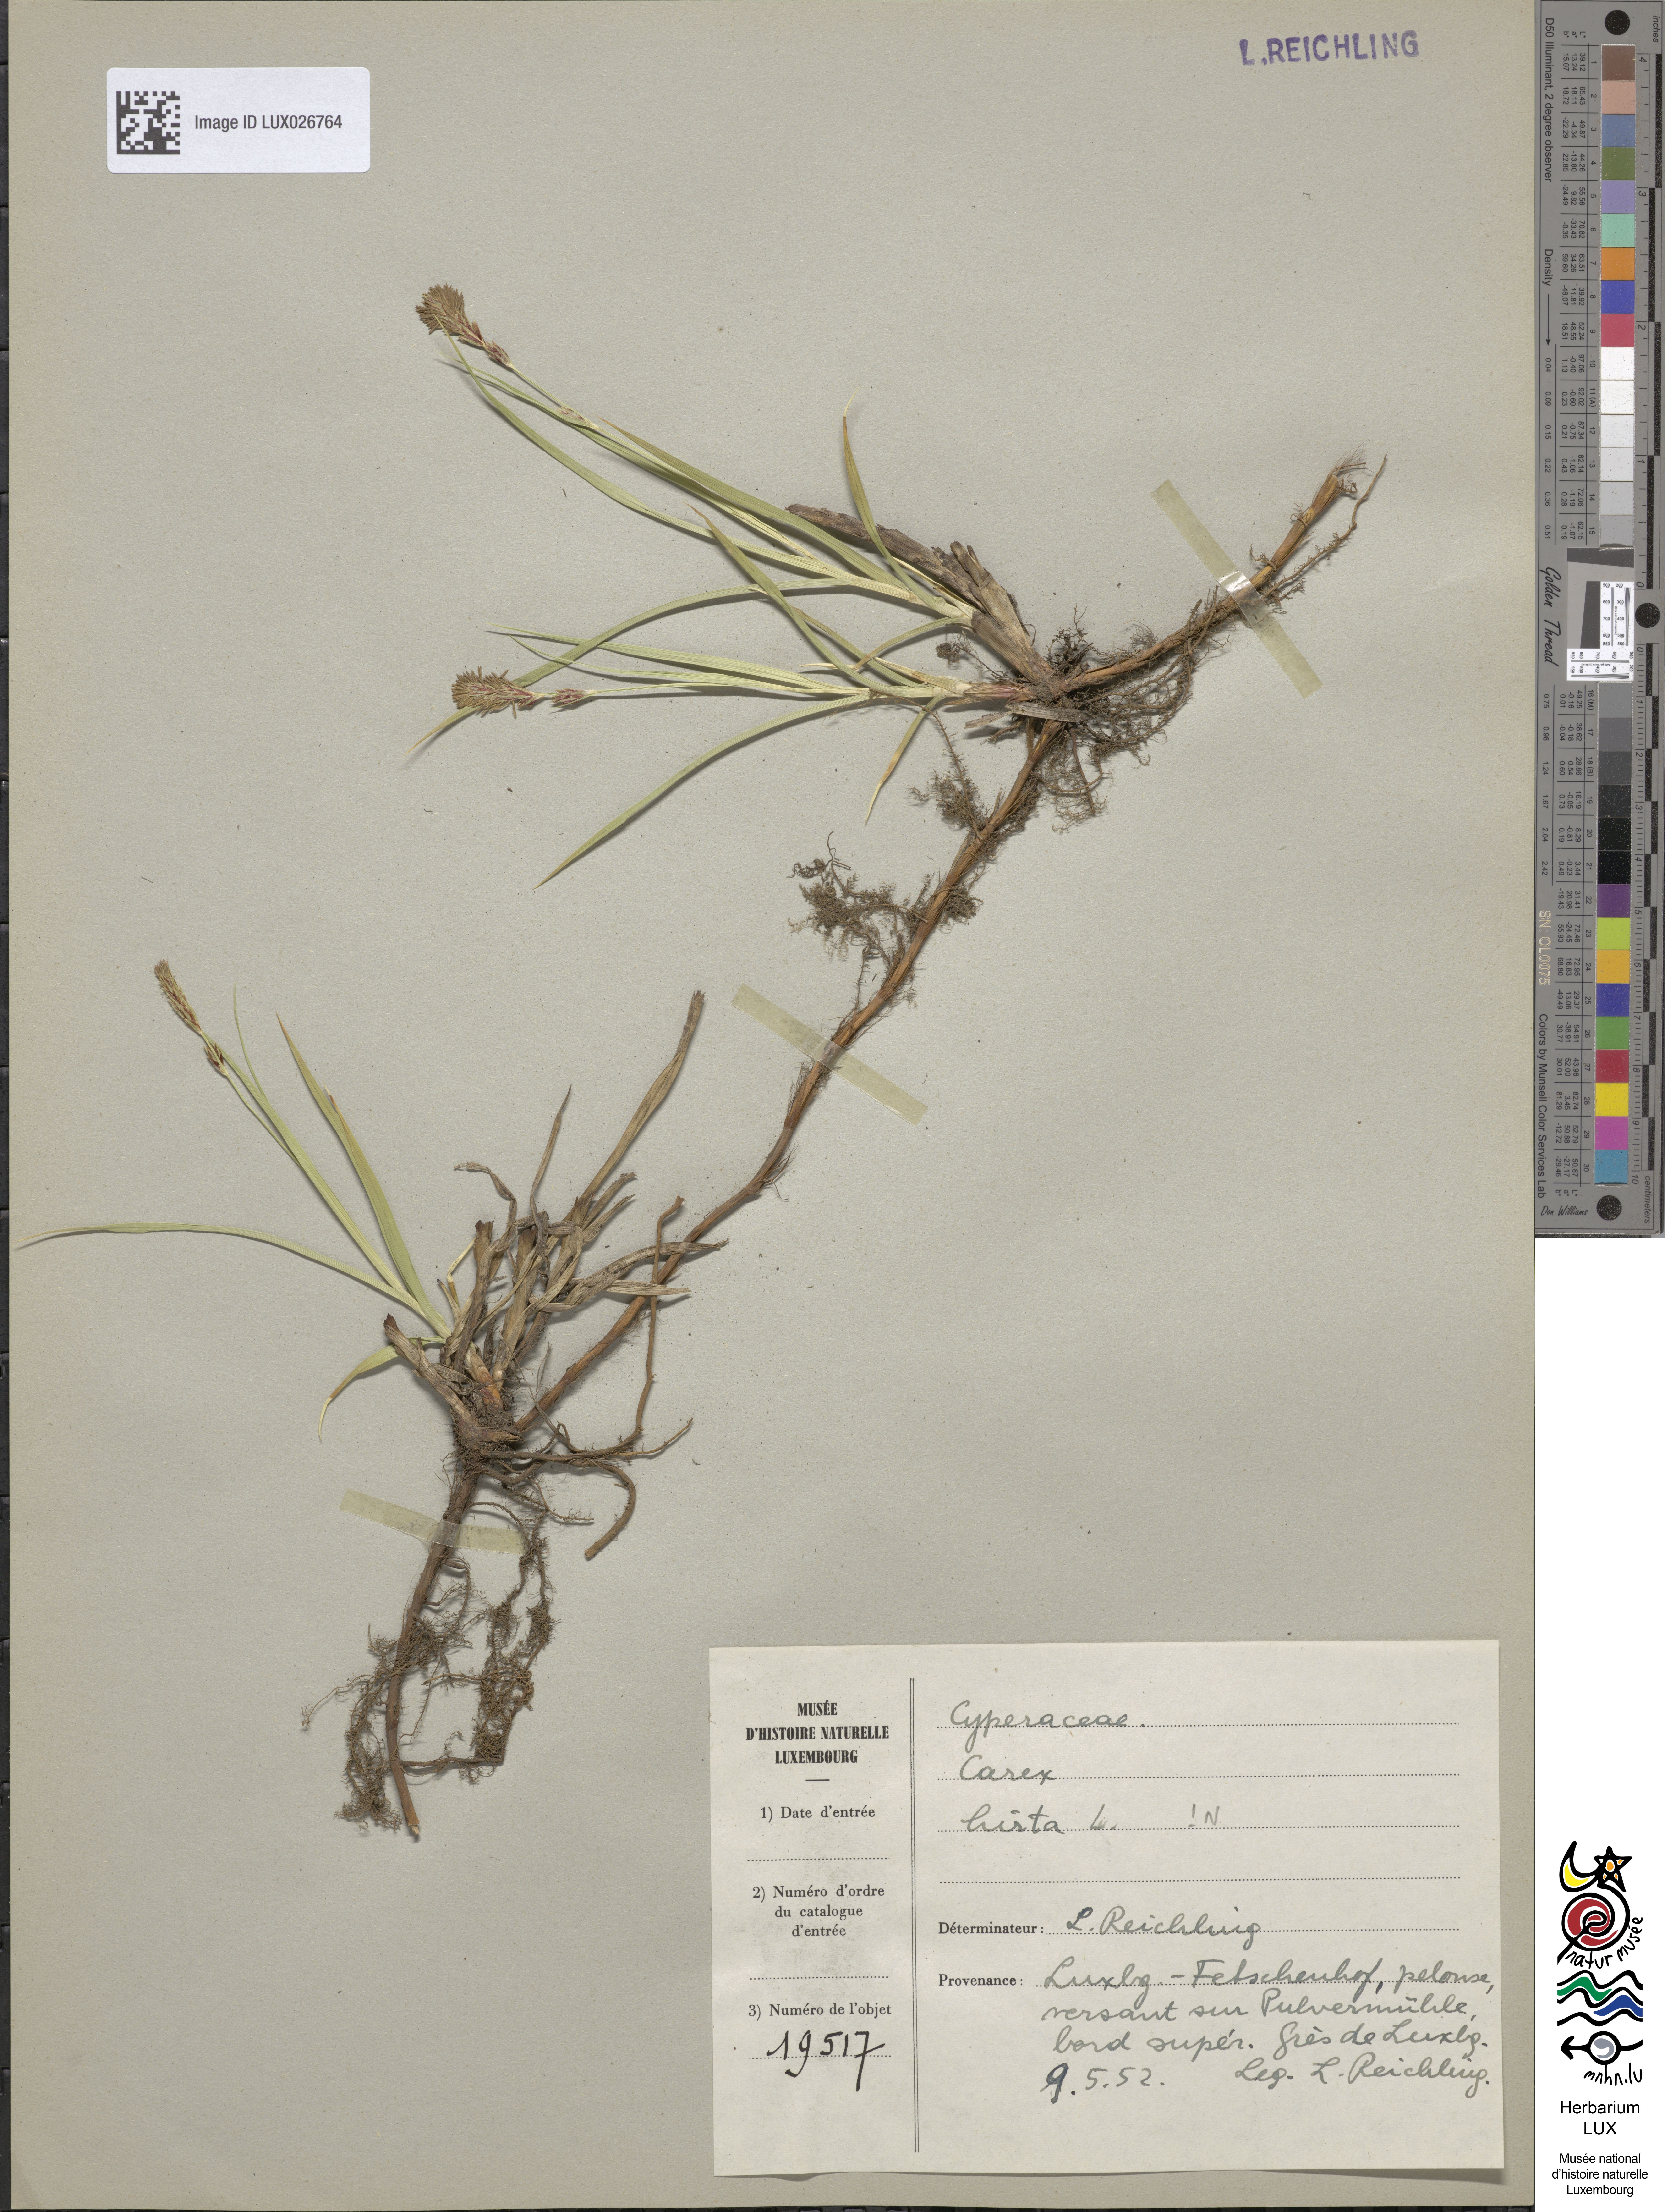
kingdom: Plantae
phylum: Tracheophyta
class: Liliopsida
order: Poales
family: Cyperaceae
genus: Carex
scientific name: Carex hirta
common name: Hairy sedge
